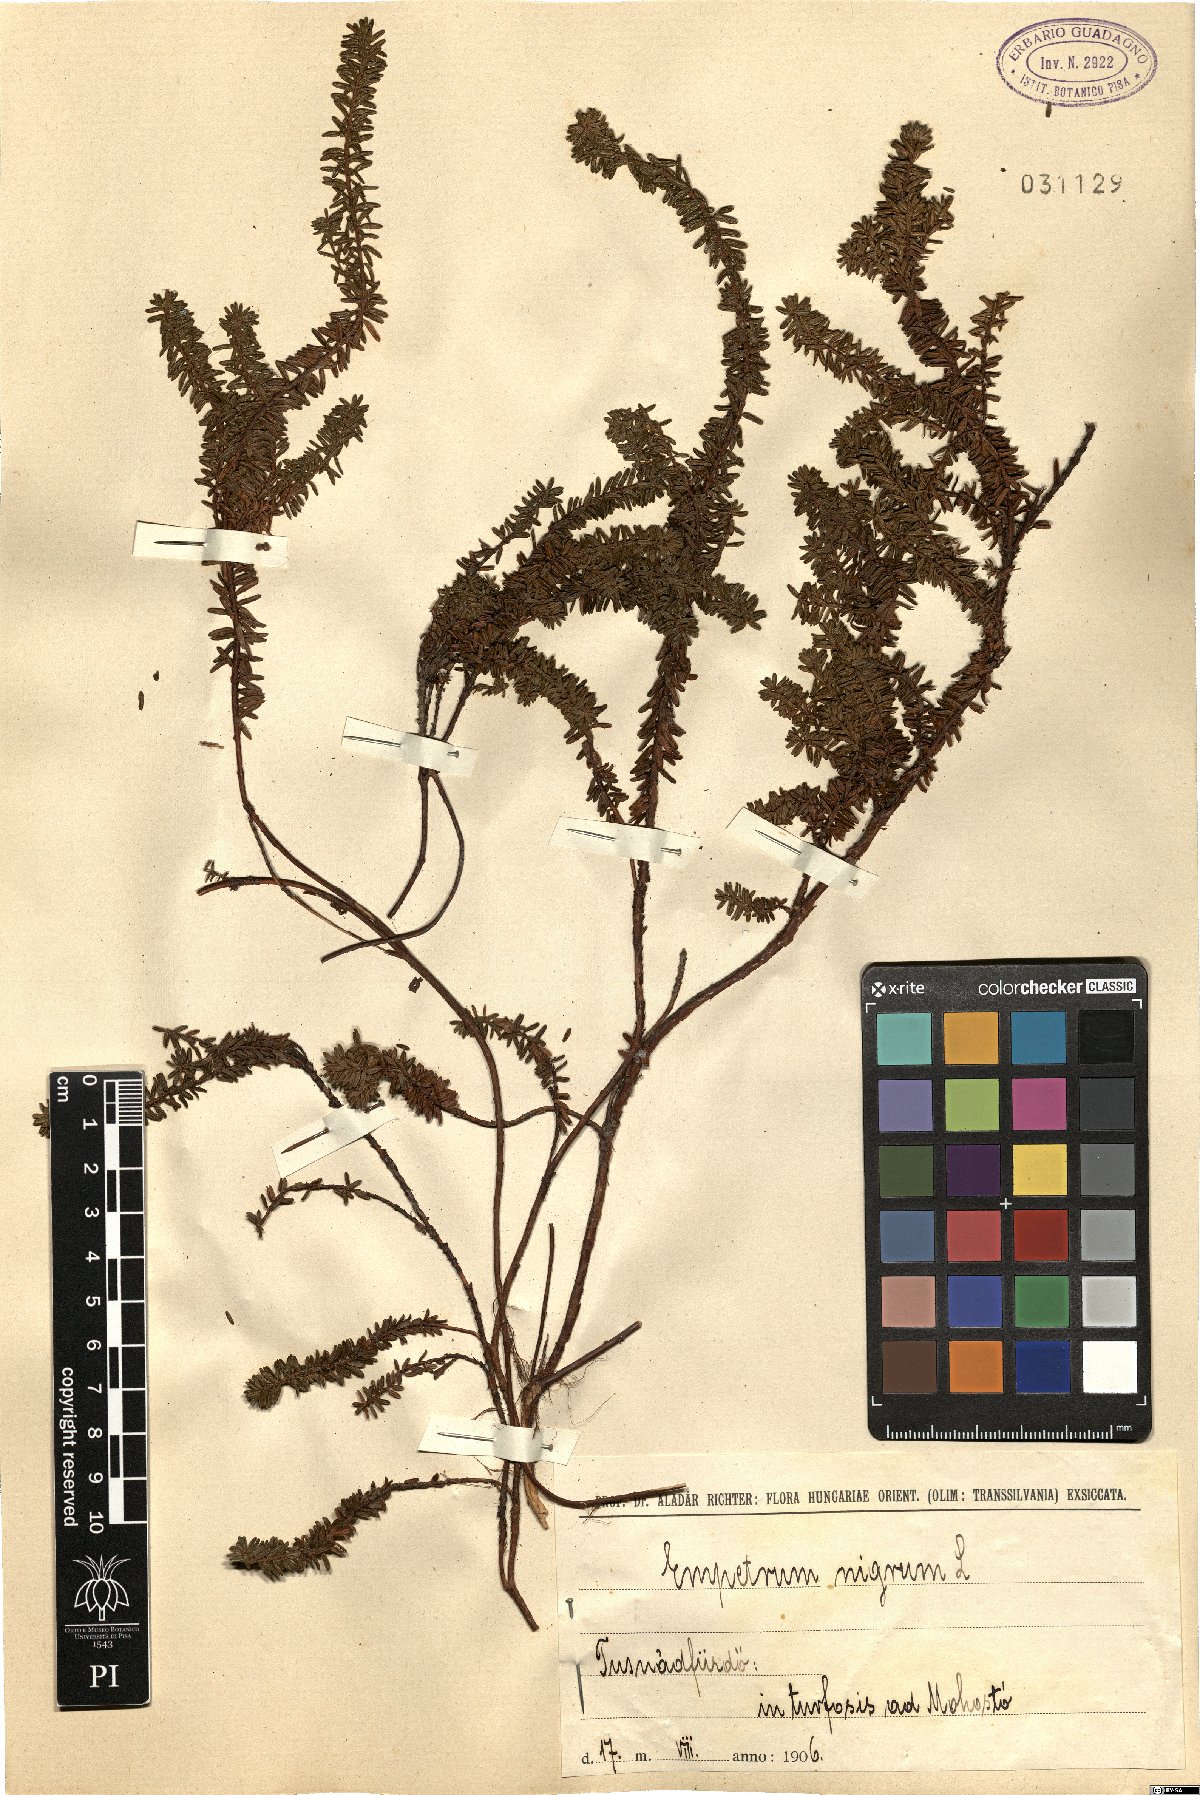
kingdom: Plantae
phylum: Tracheophyta
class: Magnoliopsida
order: Ericales
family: Ericaceae
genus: Empetrum
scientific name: Empetrum nigrum
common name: Black crowberry
